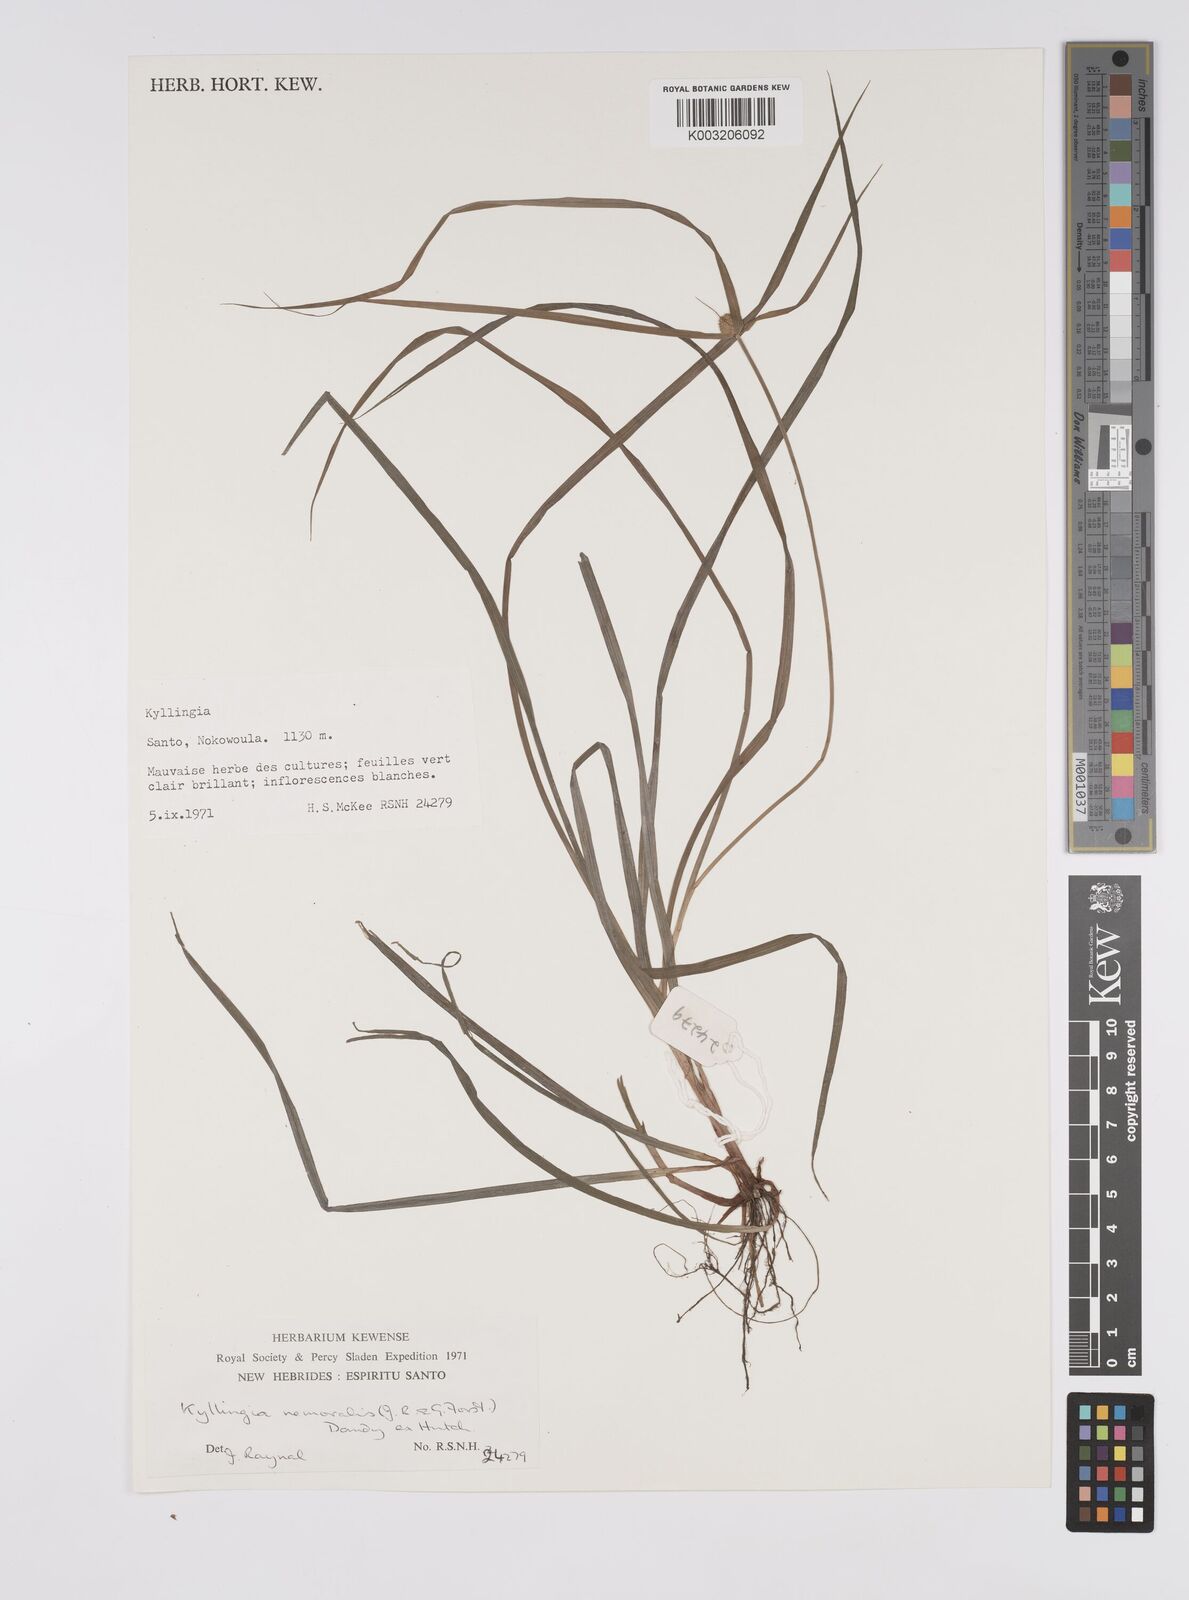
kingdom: Plantae
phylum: Tracheophyta
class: Liliopsida
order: Poales
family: Cyperaceae
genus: Cyperus
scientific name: Cyperus nemoralis
